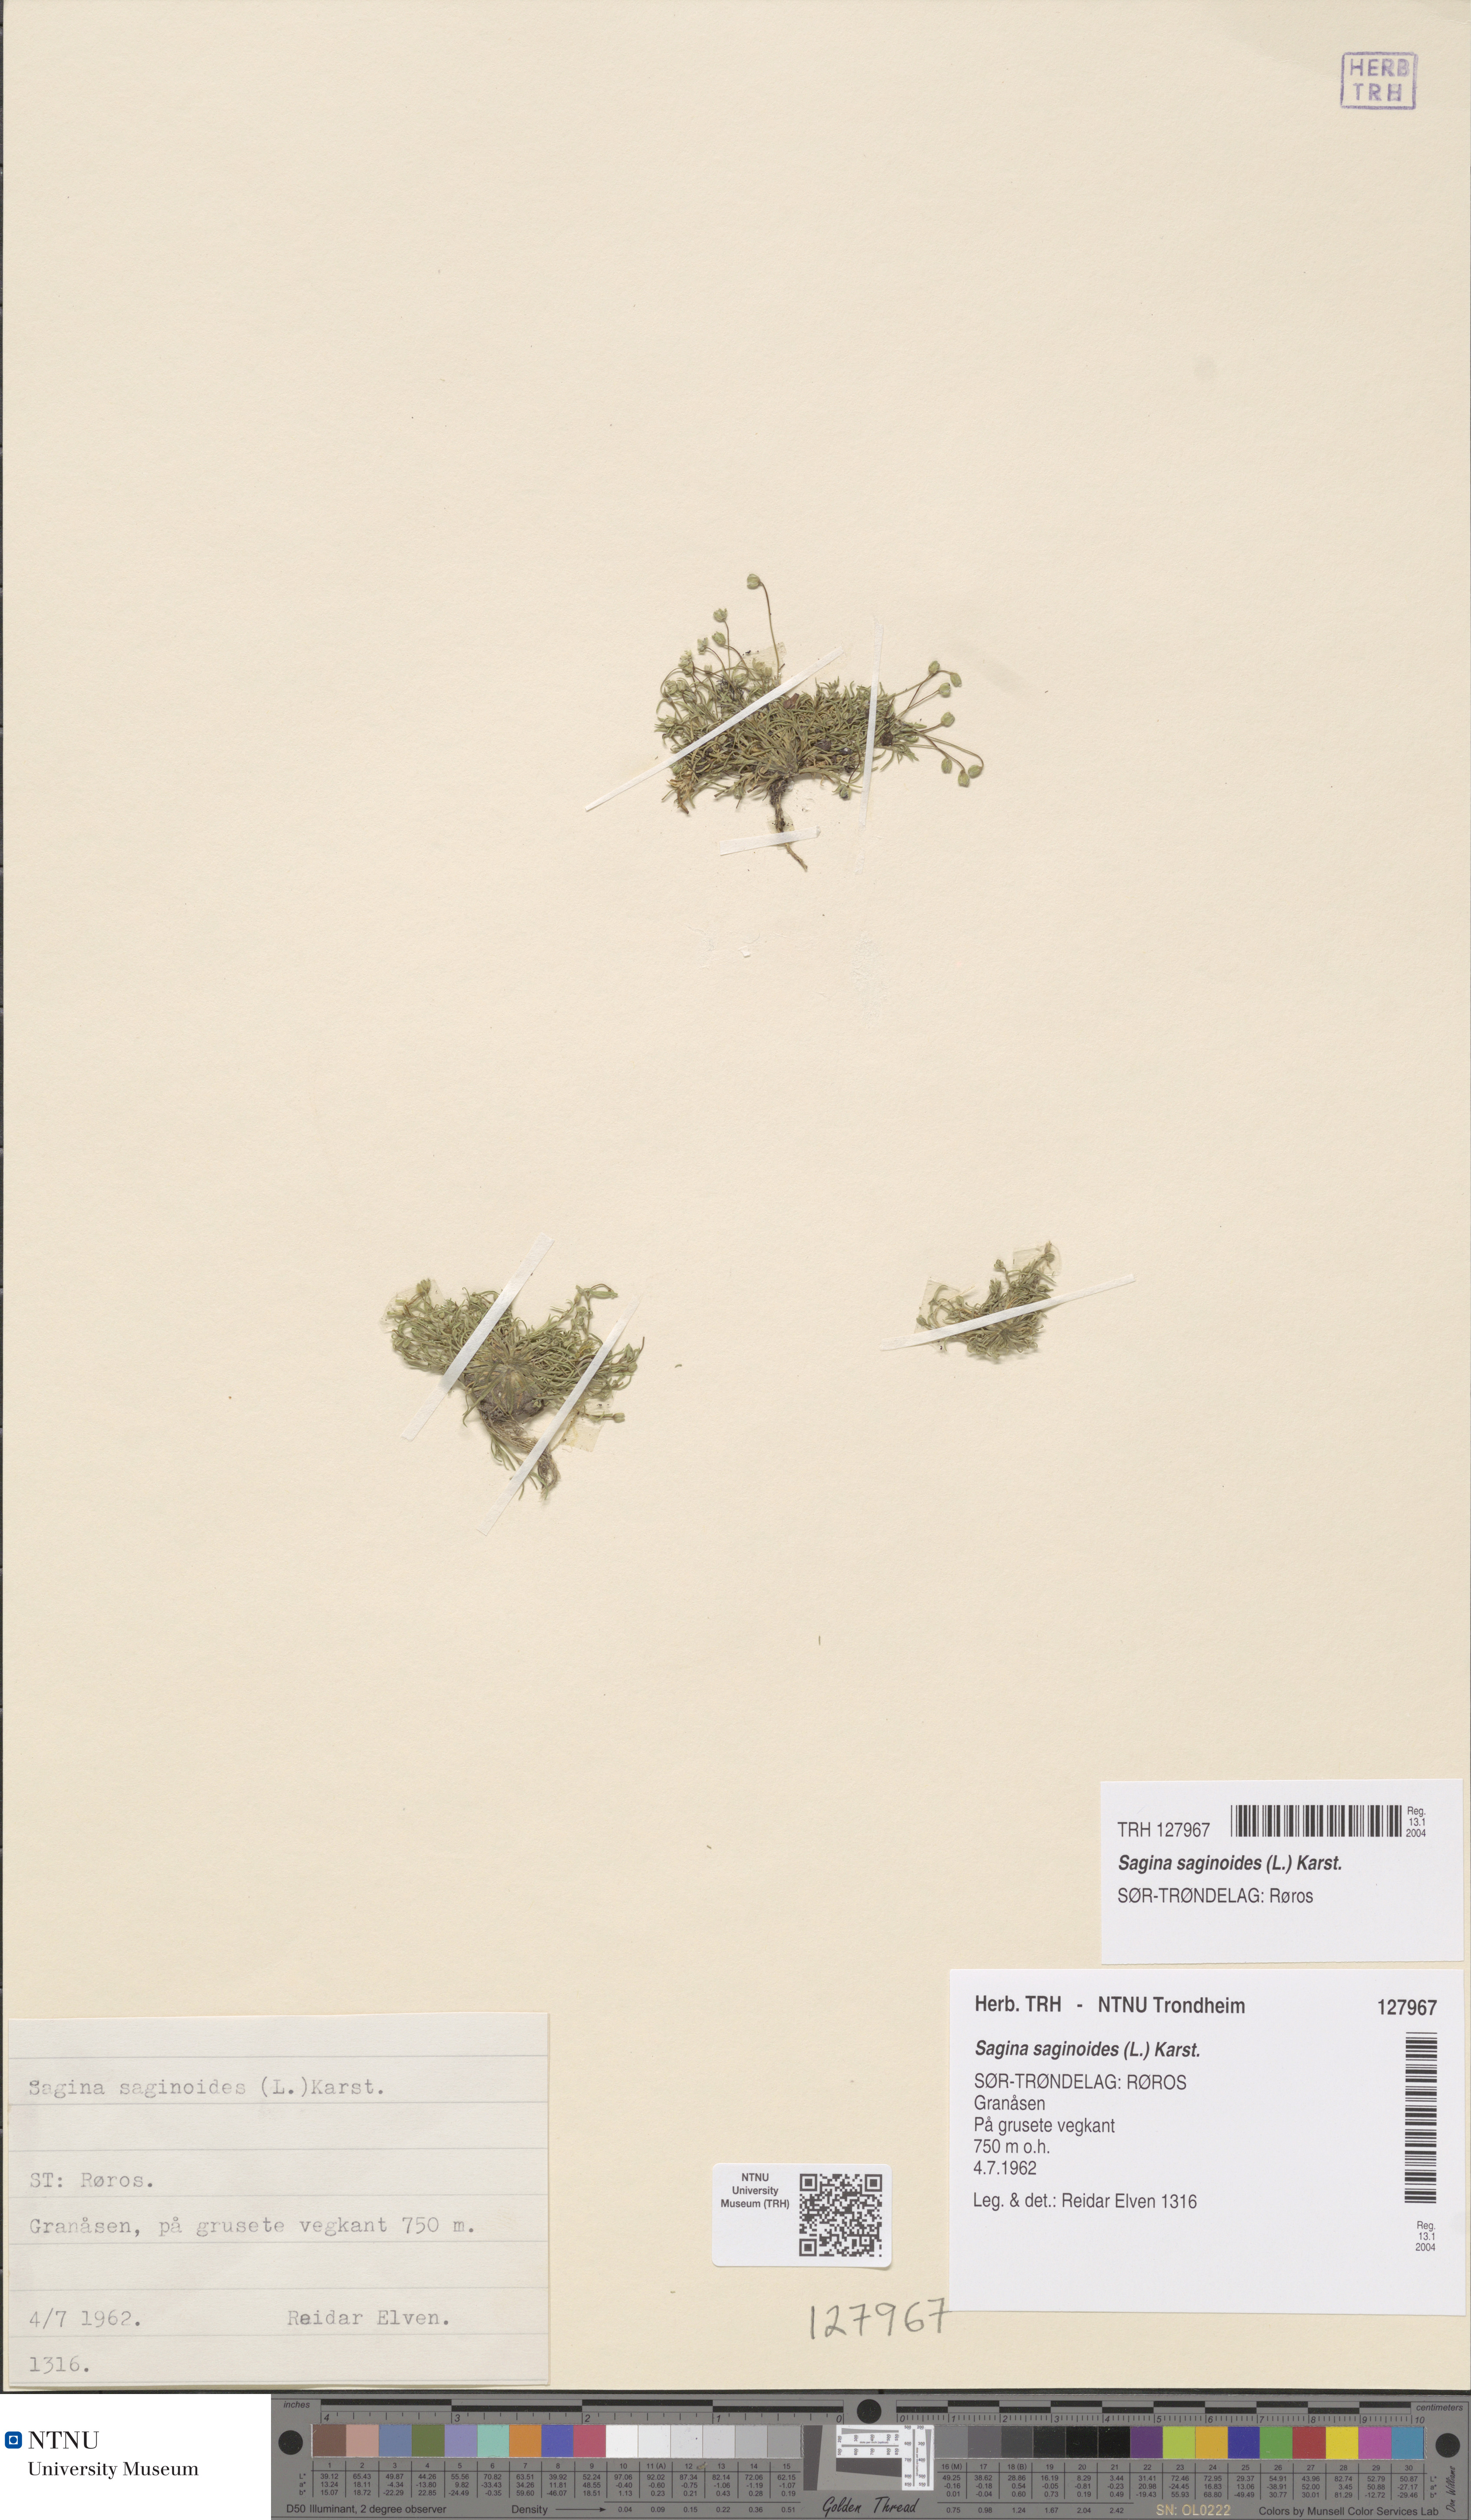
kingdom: Plantae
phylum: Tracheophyta
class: Magnoliopsida
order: Caryophyllales
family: Caryophyllaceae
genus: Sagina
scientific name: Sagina saginoides
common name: Alpine pearlwort
